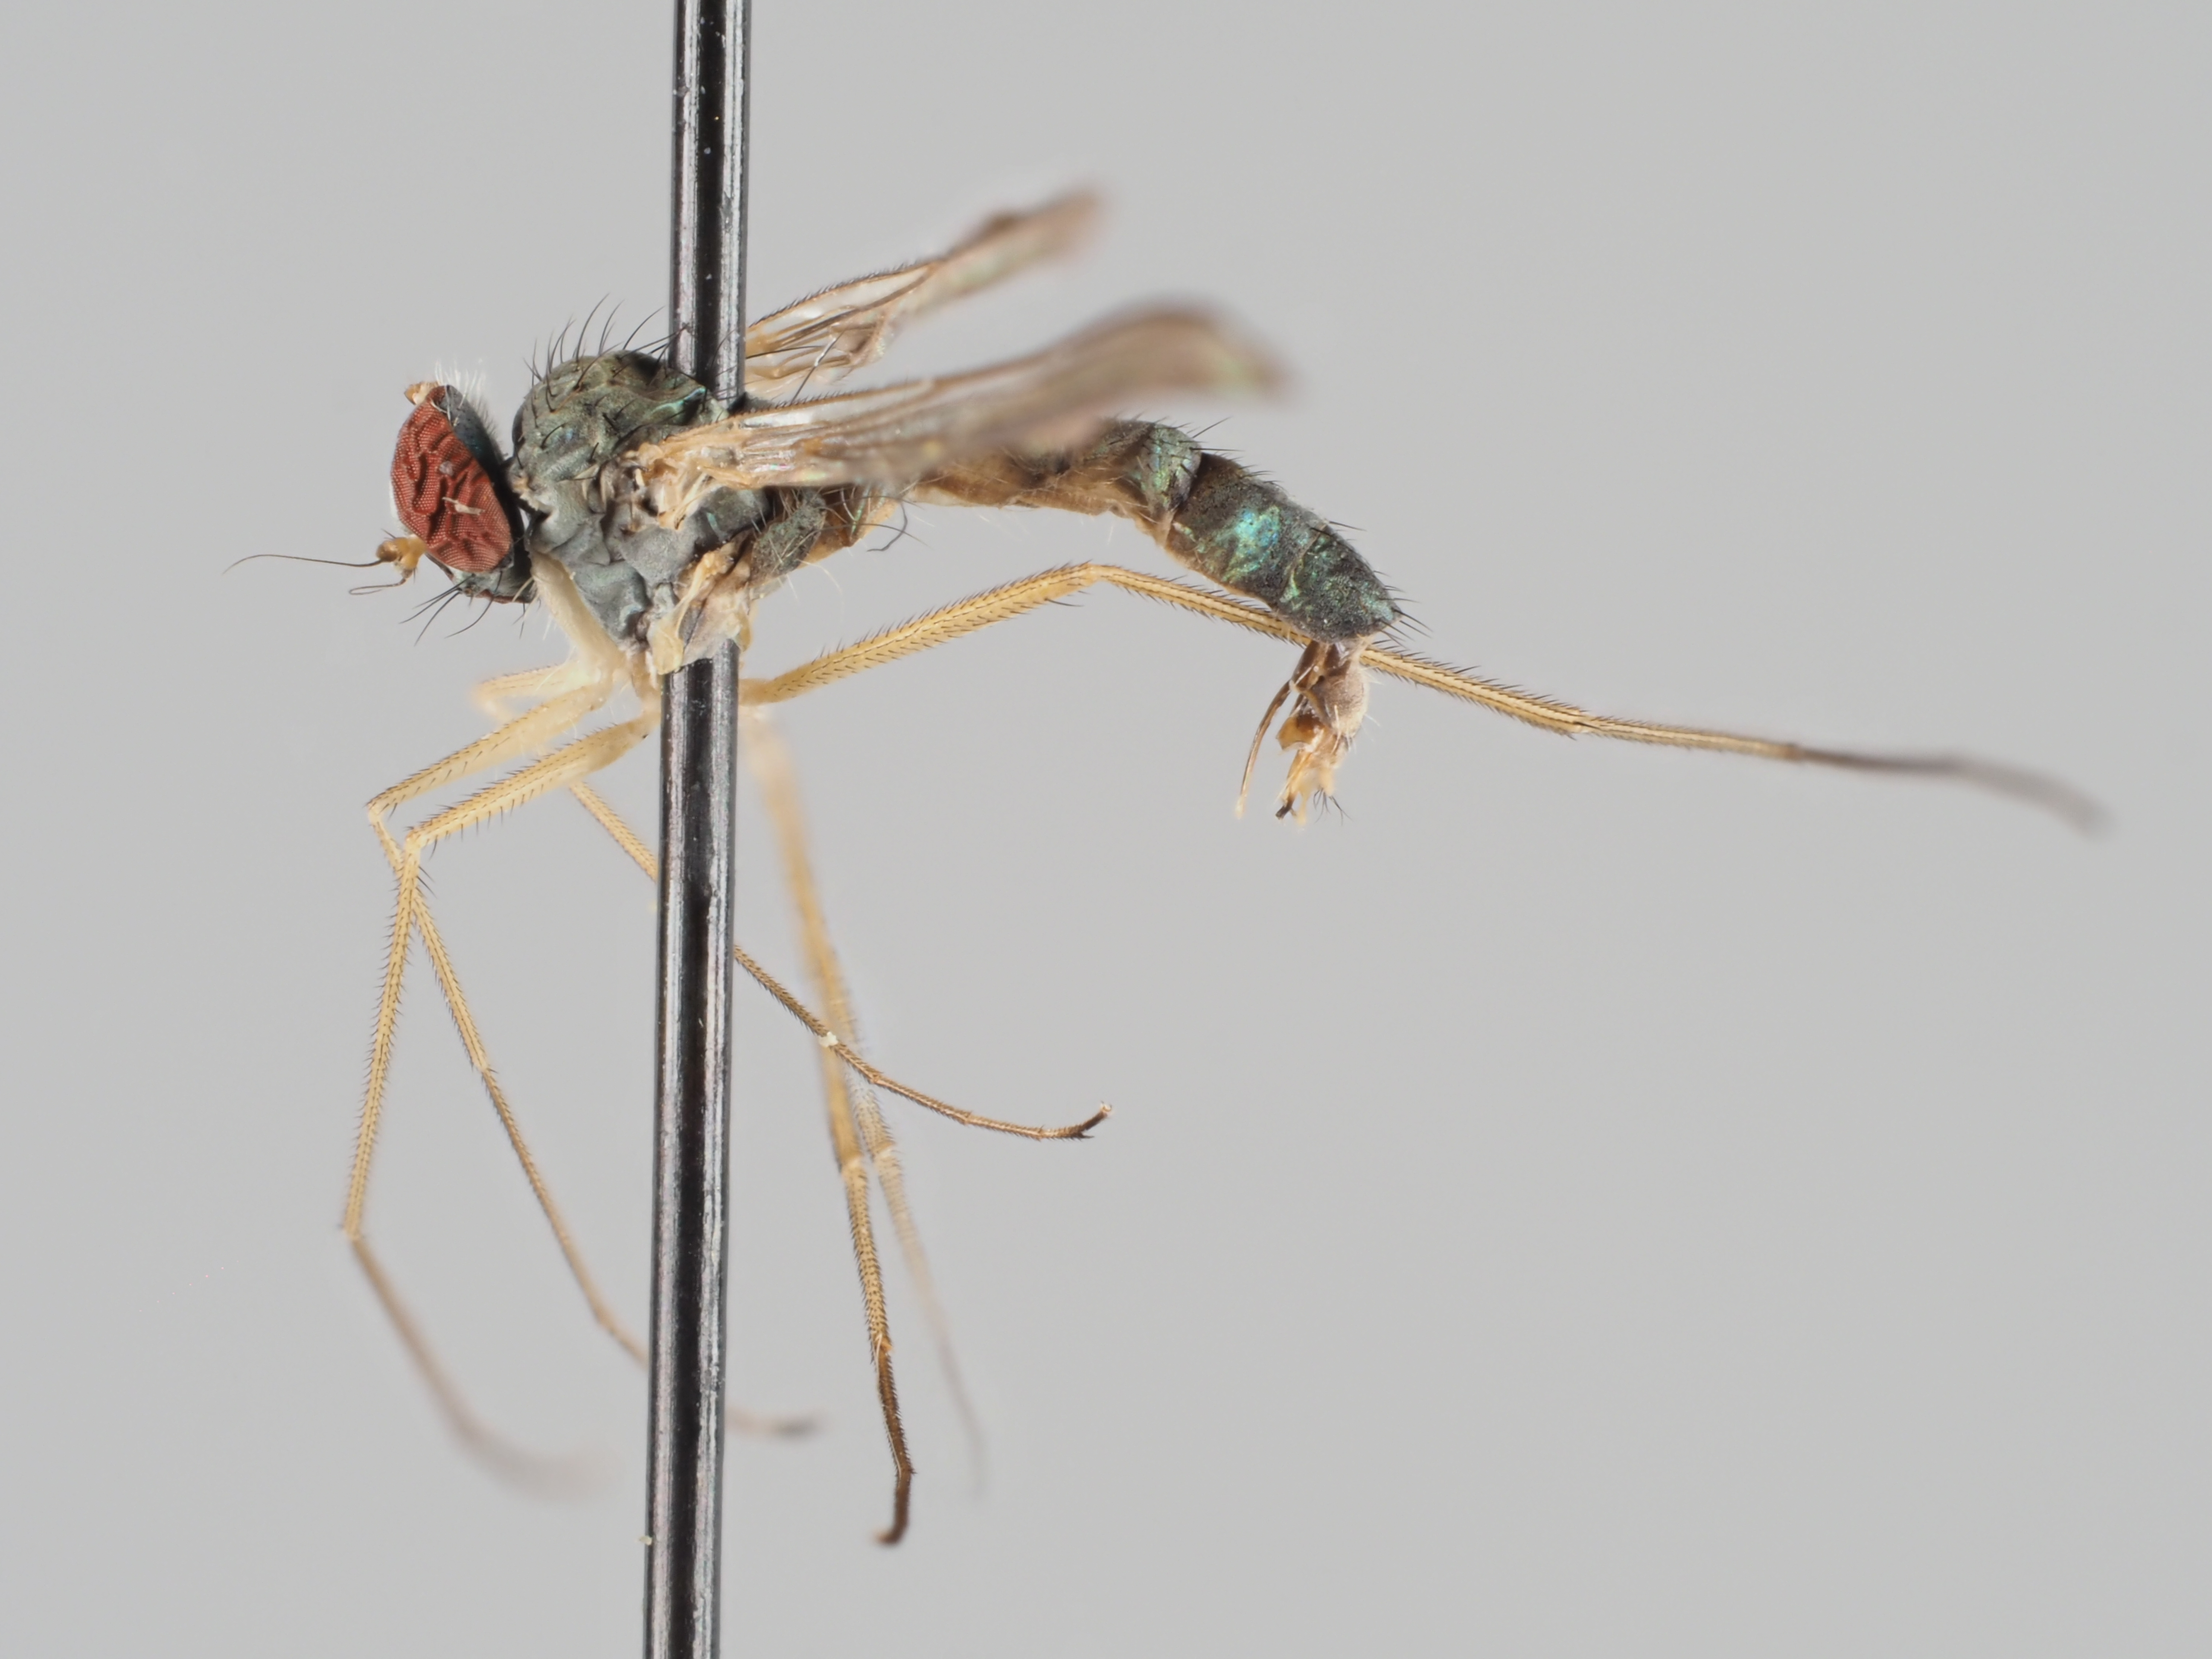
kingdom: Animalia
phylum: Arthropoda
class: Insecta
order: Diptera
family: Dolichopodidae
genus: Sciapus
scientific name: Sciapus wiedemanni
